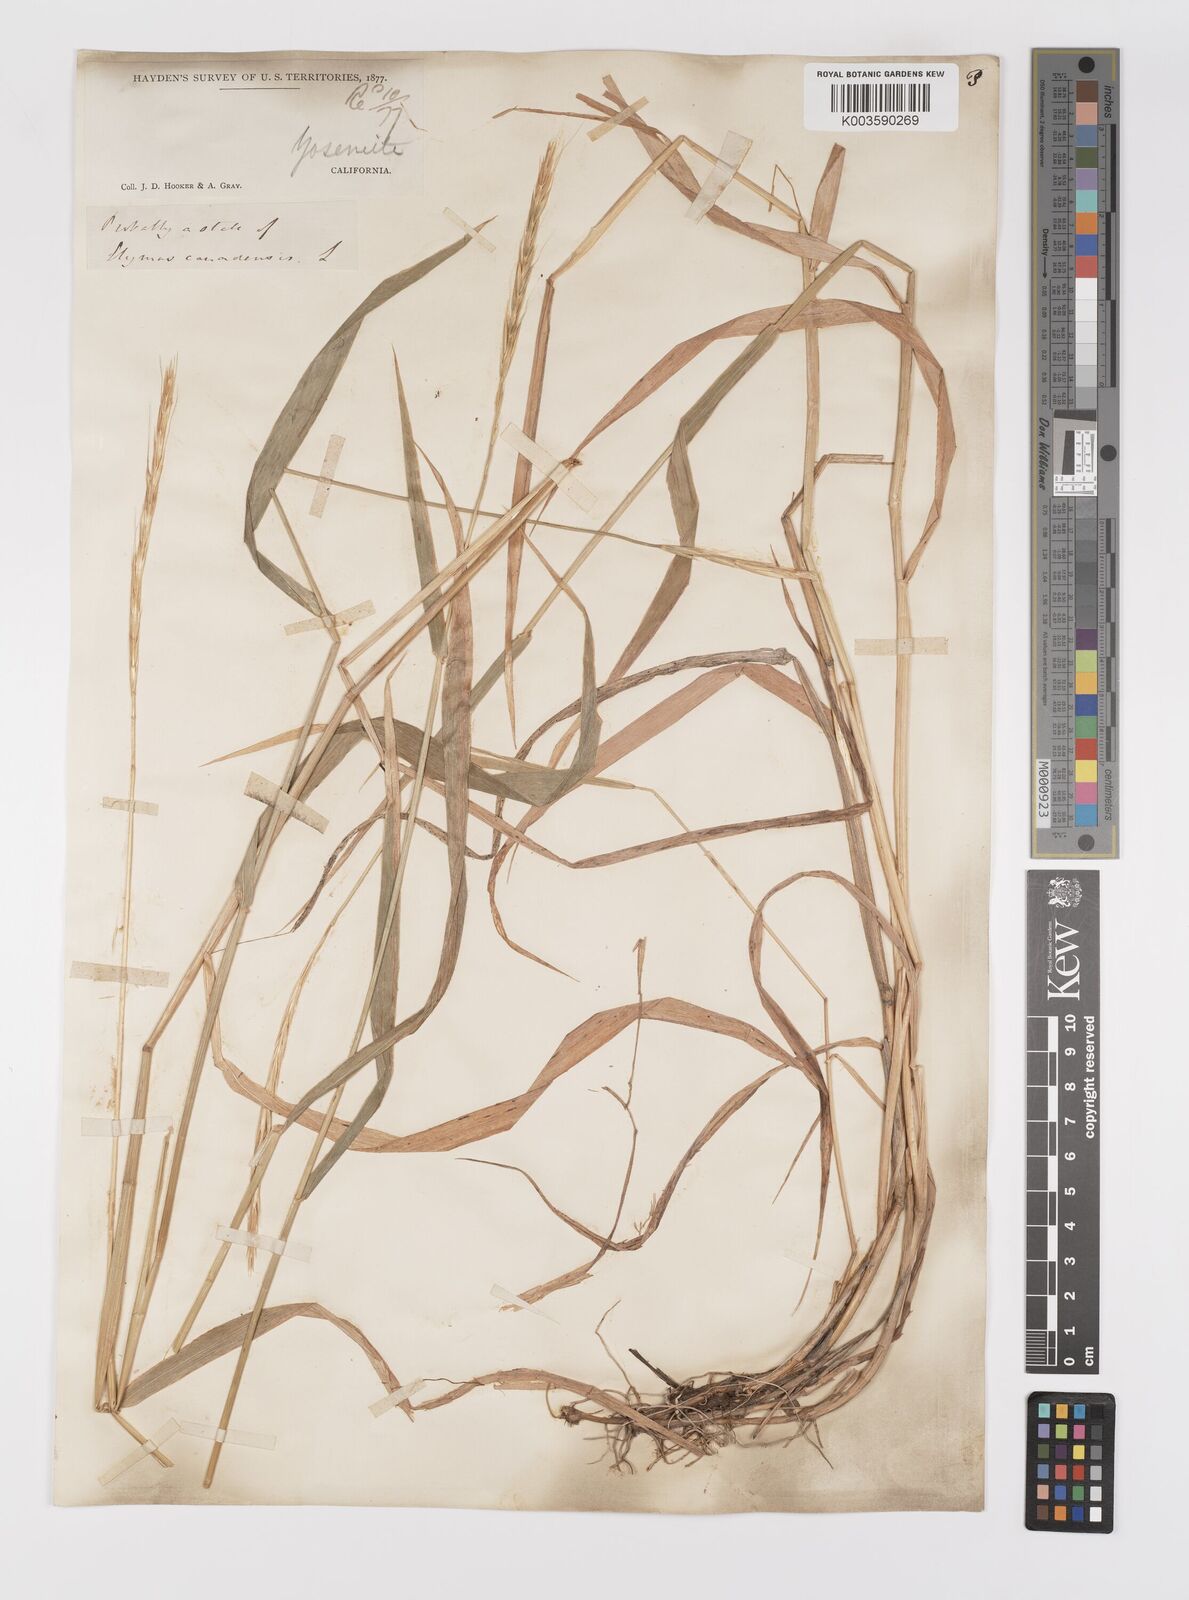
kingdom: Plantae
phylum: Tracheophyta
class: Liliopsida
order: Poales
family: Poaceae
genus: Elymus
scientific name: Elymus
